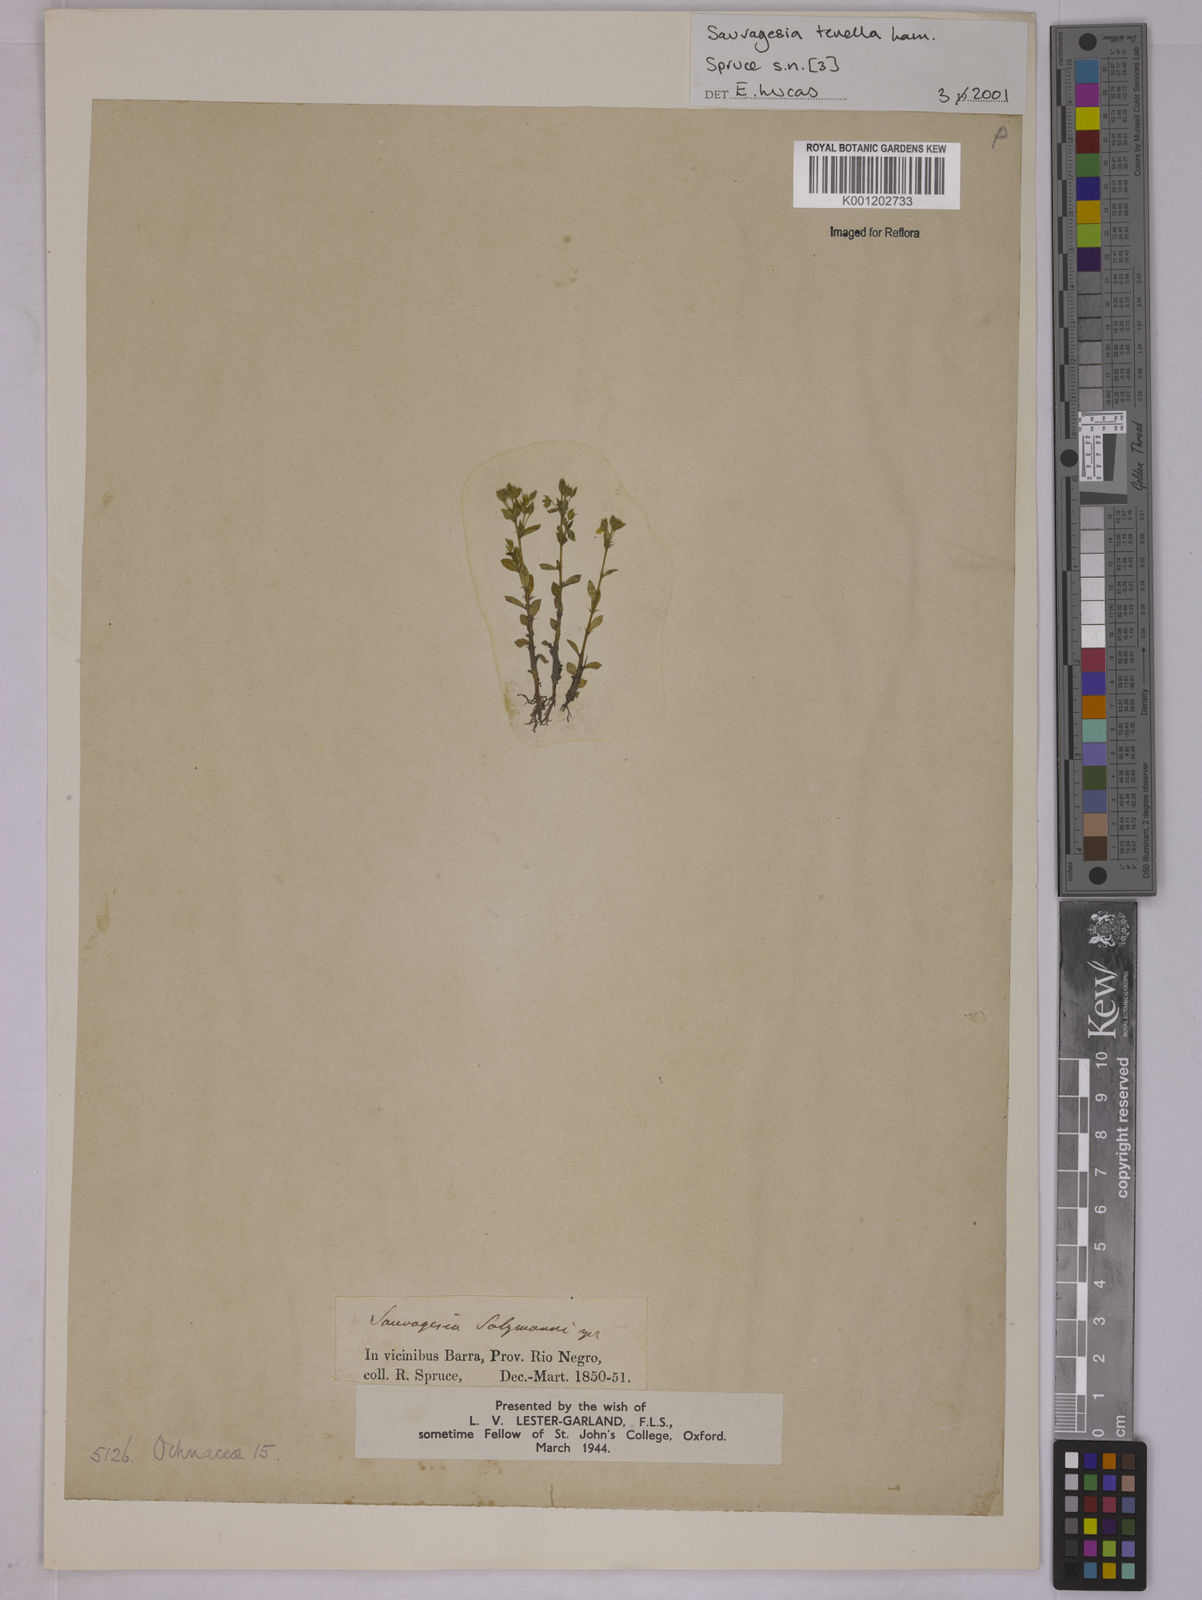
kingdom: Plantae
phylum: Tracheophyta
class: Magnoliopsida
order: Malpighiales
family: Ochnaceae
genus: Sauvagesia
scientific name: Sauvagesia tenella
